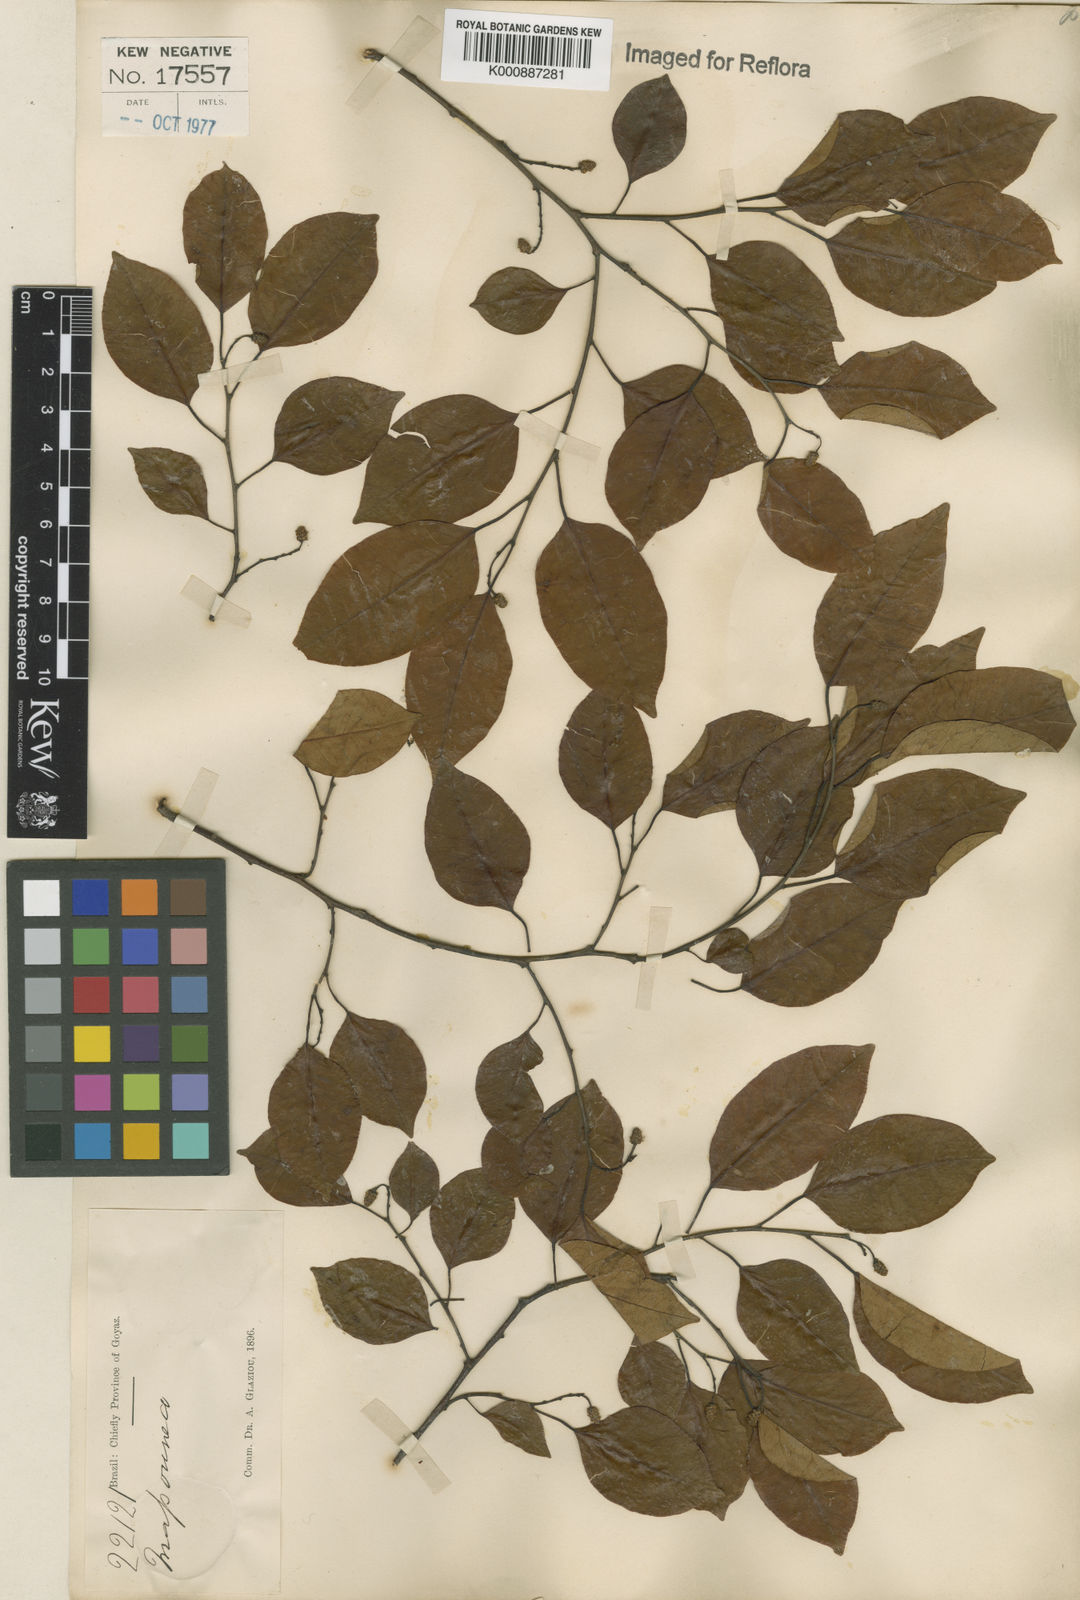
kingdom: Plantae
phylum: Tracheophyta
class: Magnoliopsida
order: Malpighiales
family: Euphorbiaceae
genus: Maprounea
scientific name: Maprounea guianensis
